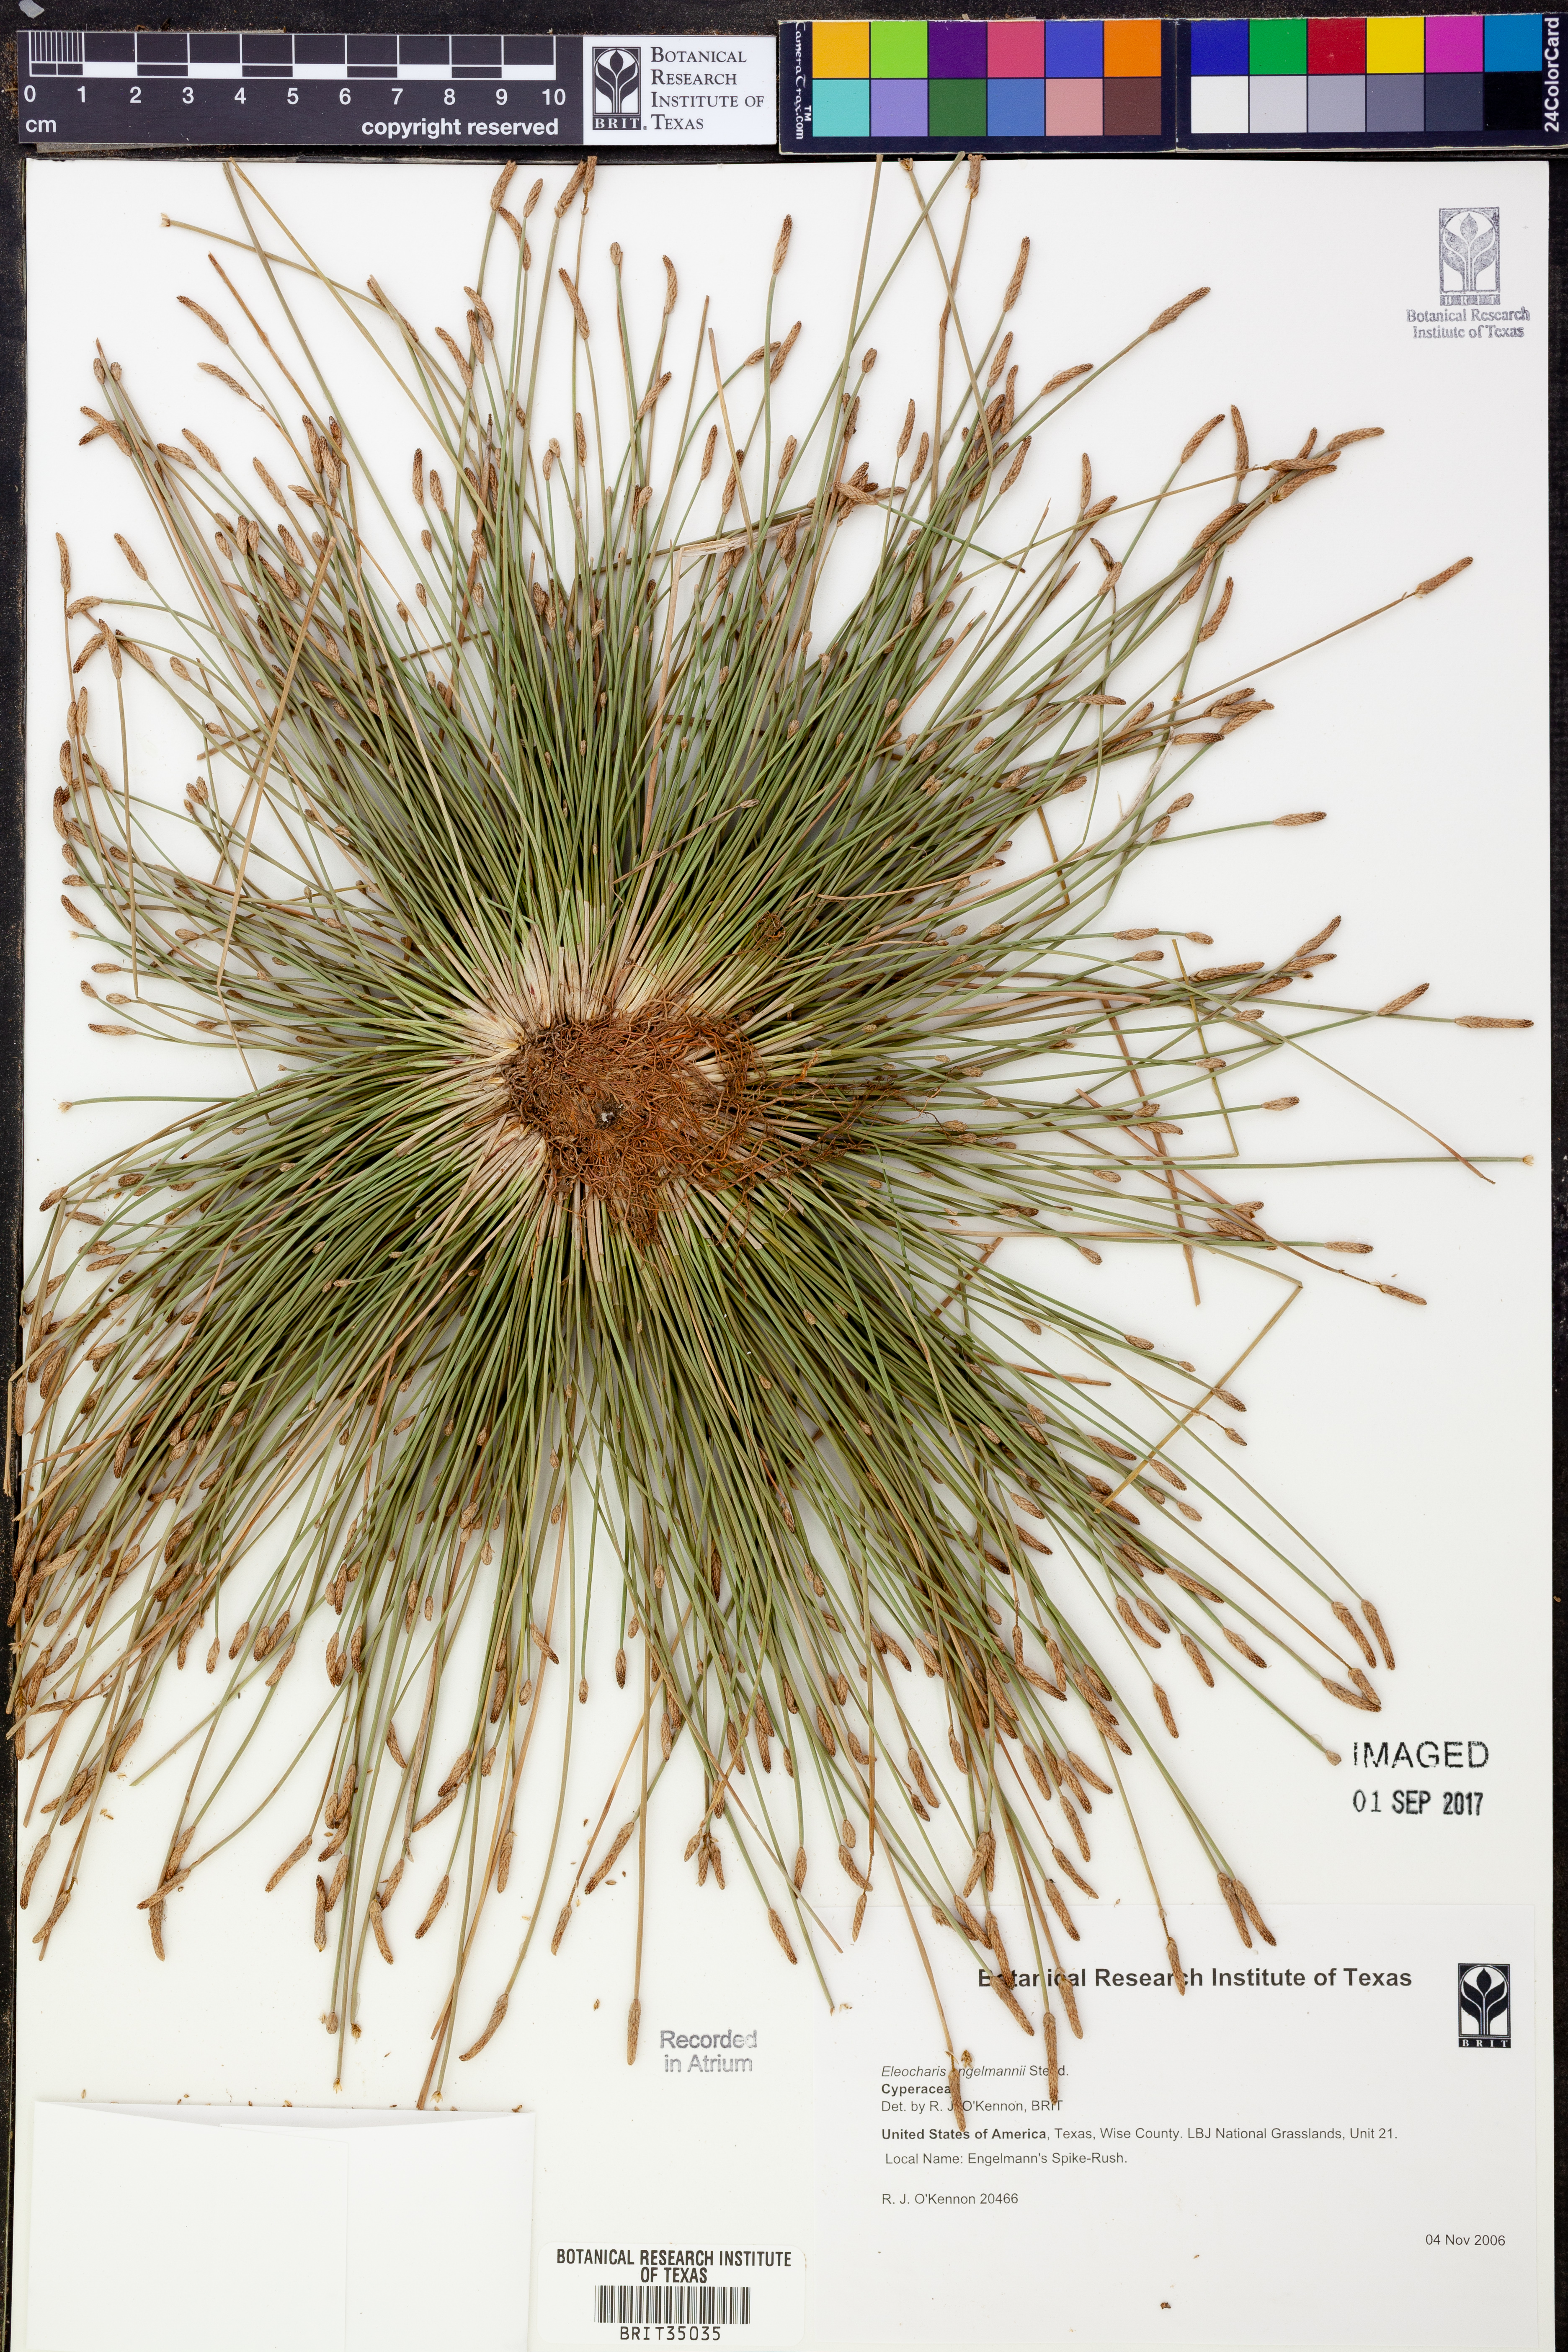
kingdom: Plantae
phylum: Tracheophyta
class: Liliopsida
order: Poales
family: Cyperaceae
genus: Eleocharis
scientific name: Eleocharis engelmannii
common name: Engelmann's spikerush
